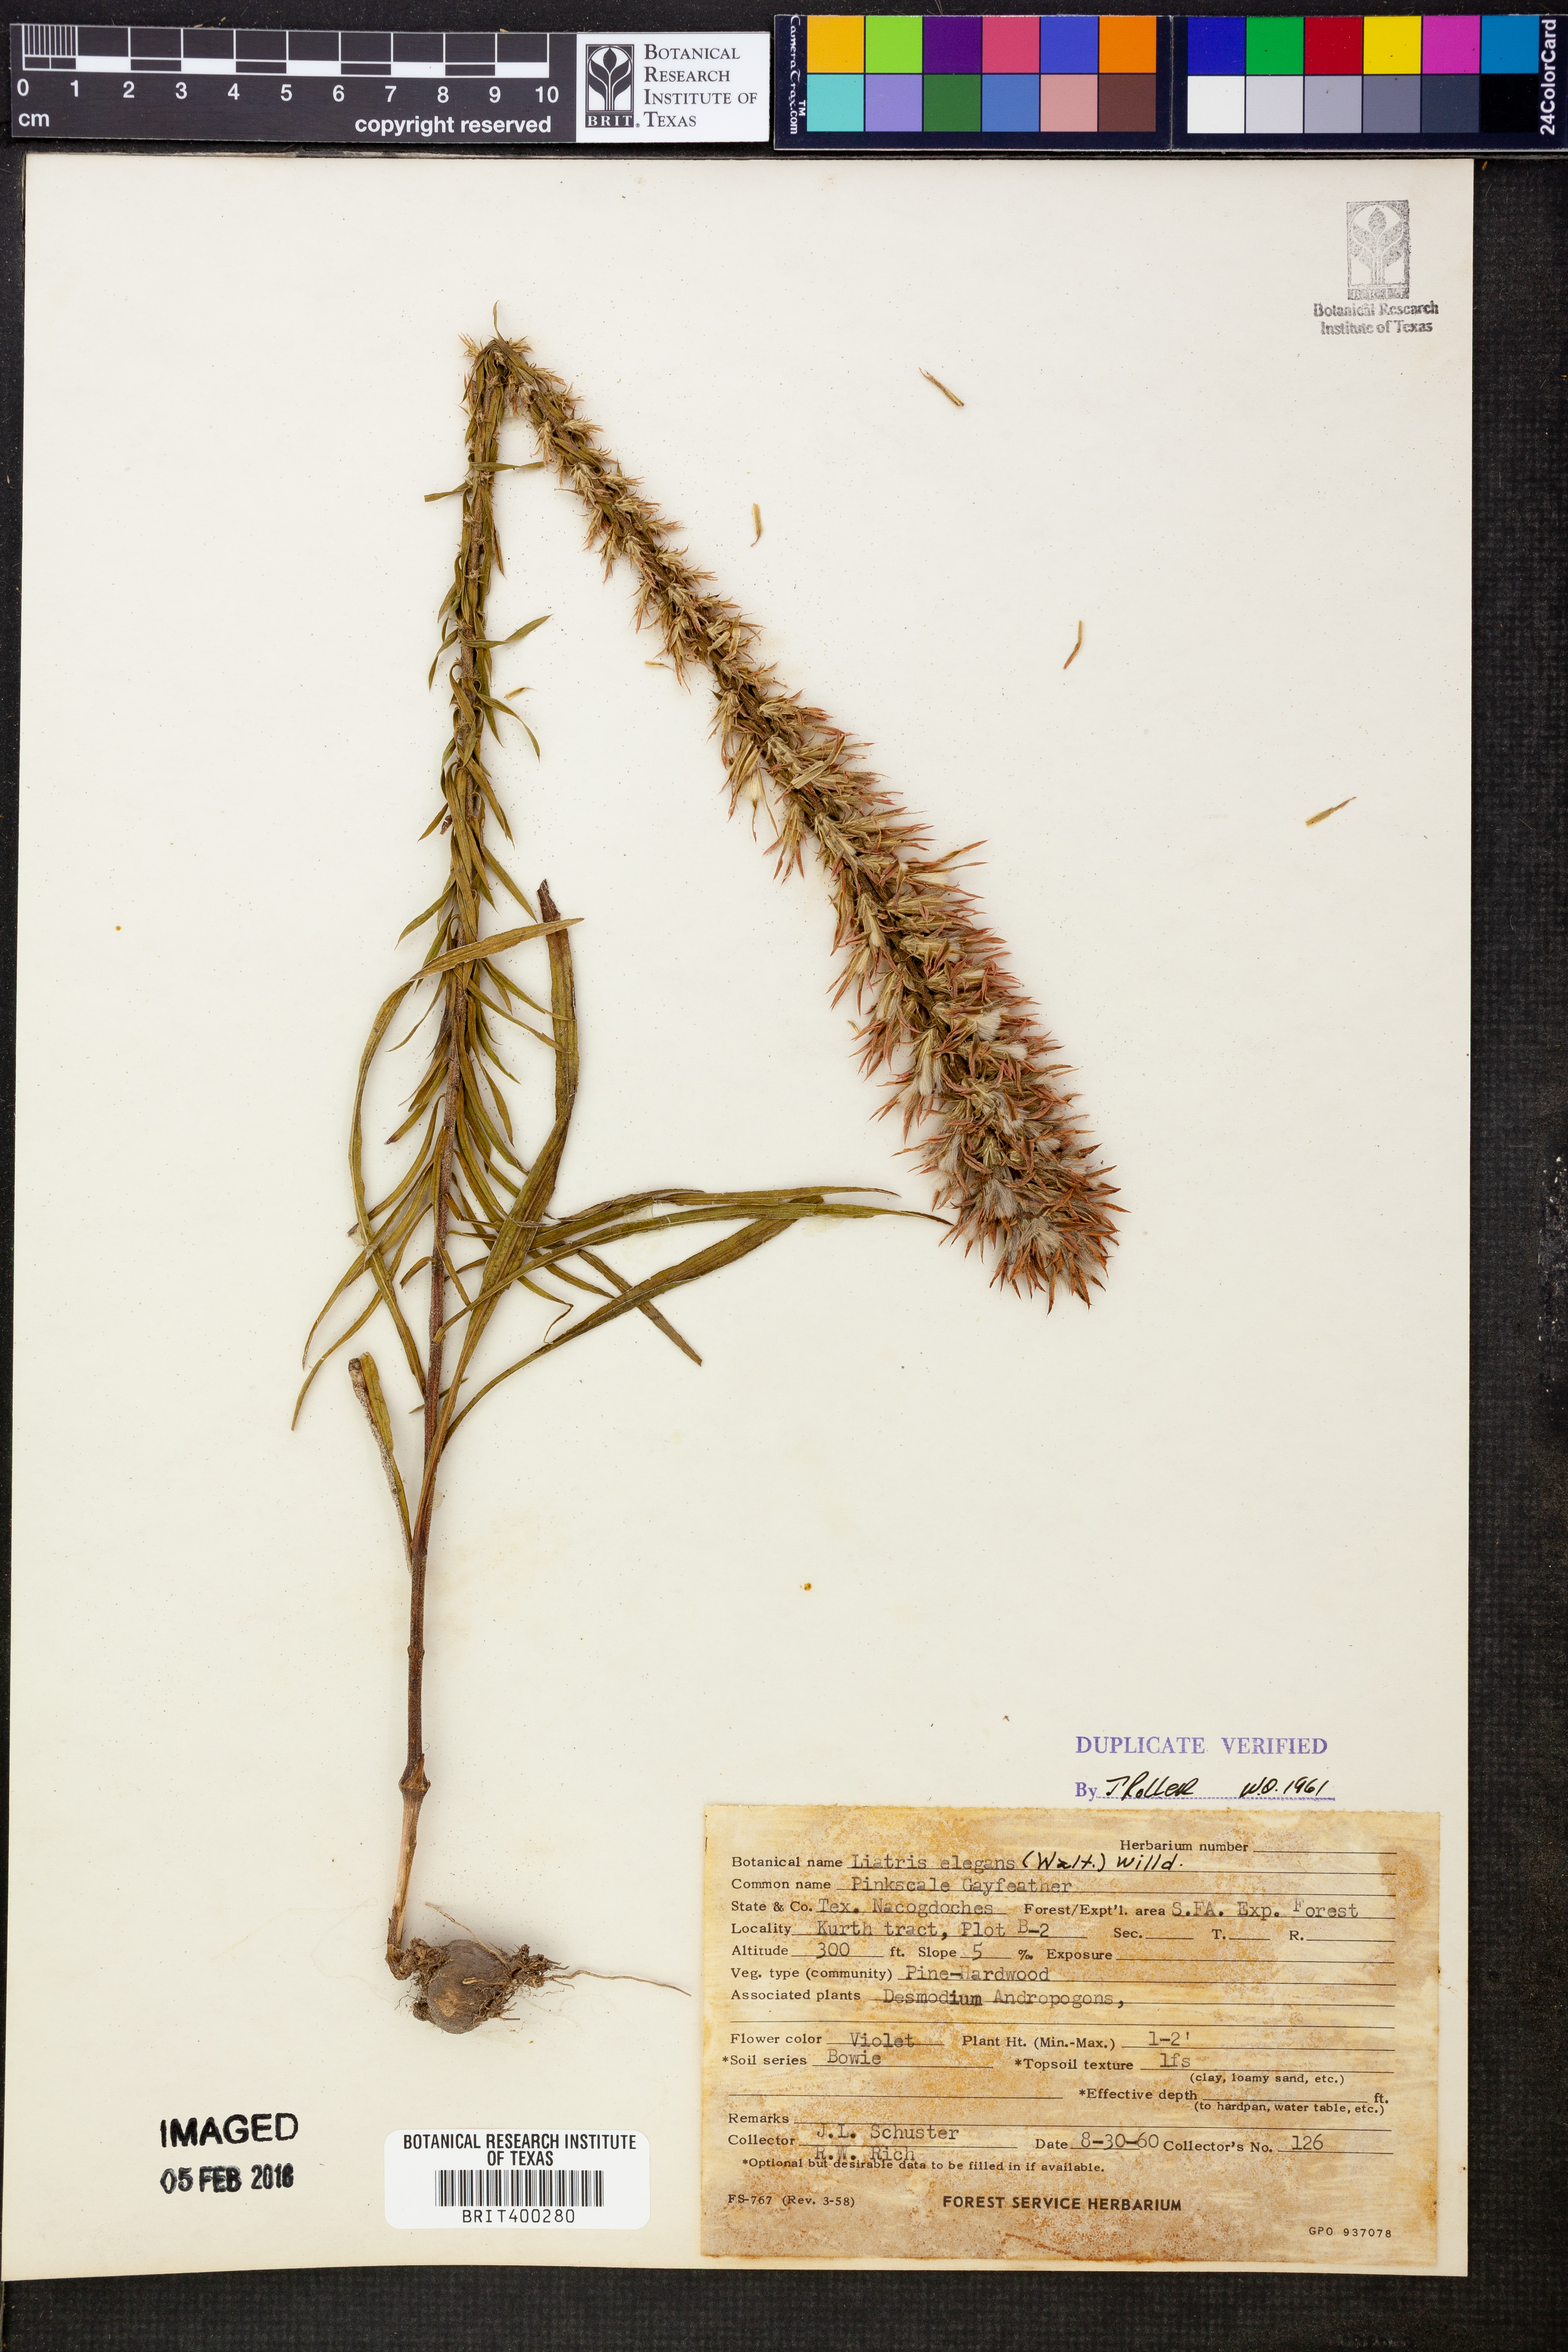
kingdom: Plantae
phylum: Tracheophyta
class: Magnoliopsida
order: Asterales
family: Asteraceae
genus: Liatris
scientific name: Liatris elegans
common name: Pinkscale gayfeather
